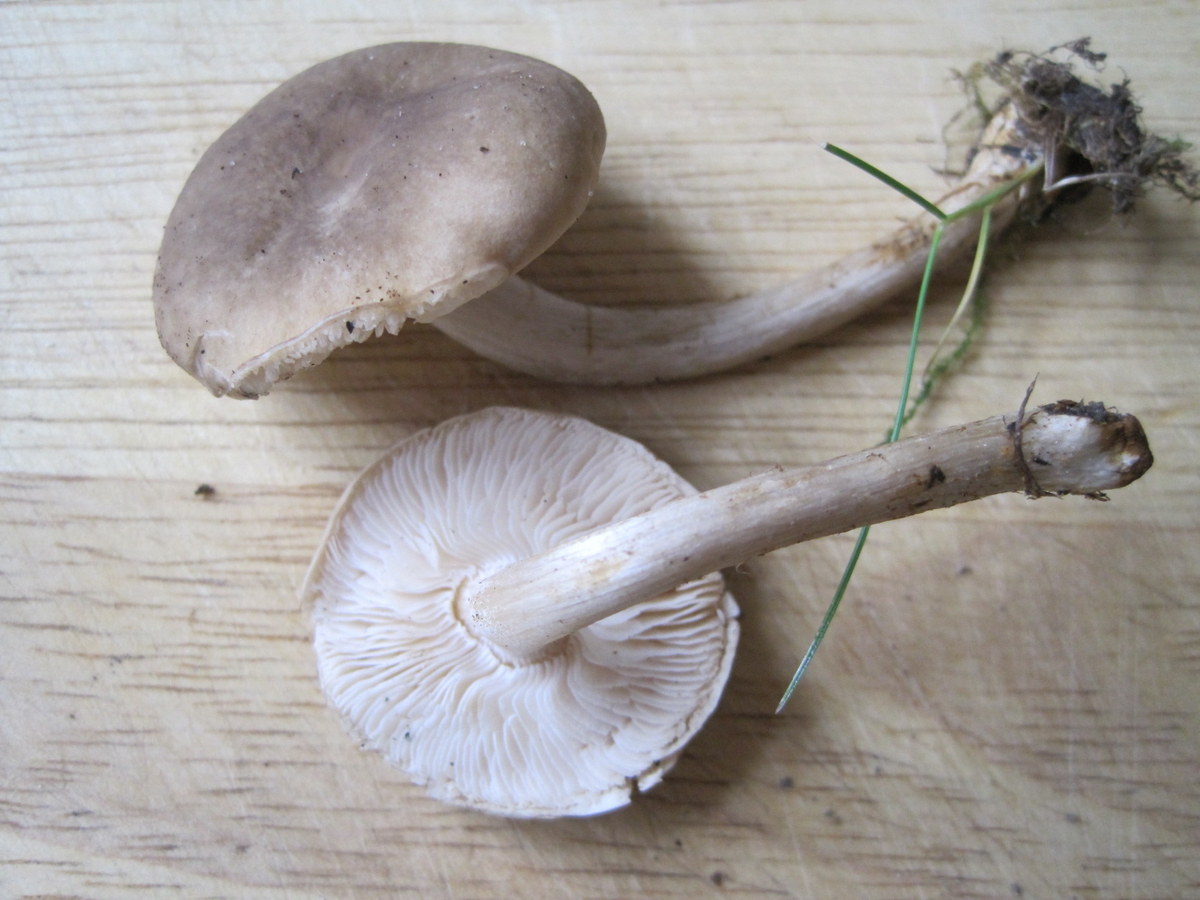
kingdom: Fungi
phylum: Basidiomycota
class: Agaricomycetes
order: Agaricales
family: Tricholomataceae
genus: Melanoleuca
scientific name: Melanoleuca polioleuca
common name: hvidbladet munkehat
